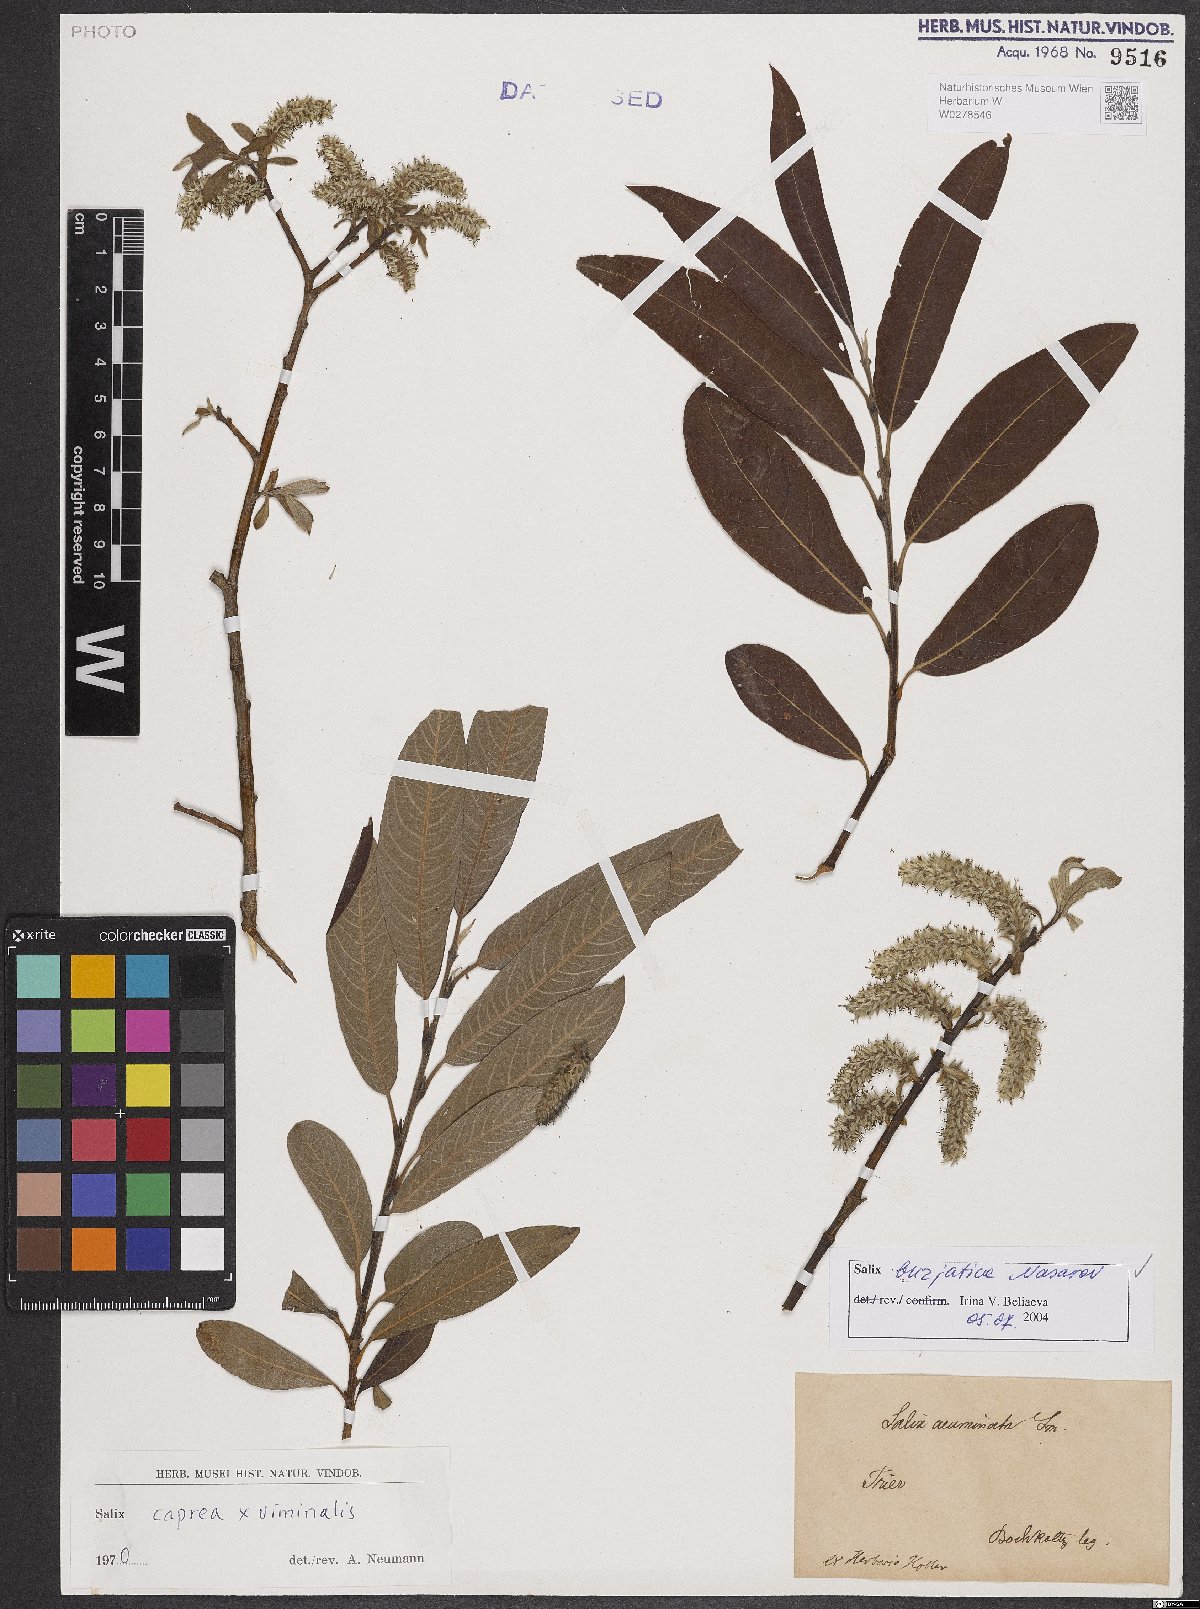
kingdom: Plantae
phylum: Tracheophyta
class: Magnoliopsida
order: Malpighiales
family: Salicaceae
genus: Salix
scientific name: Salix gmelinii
